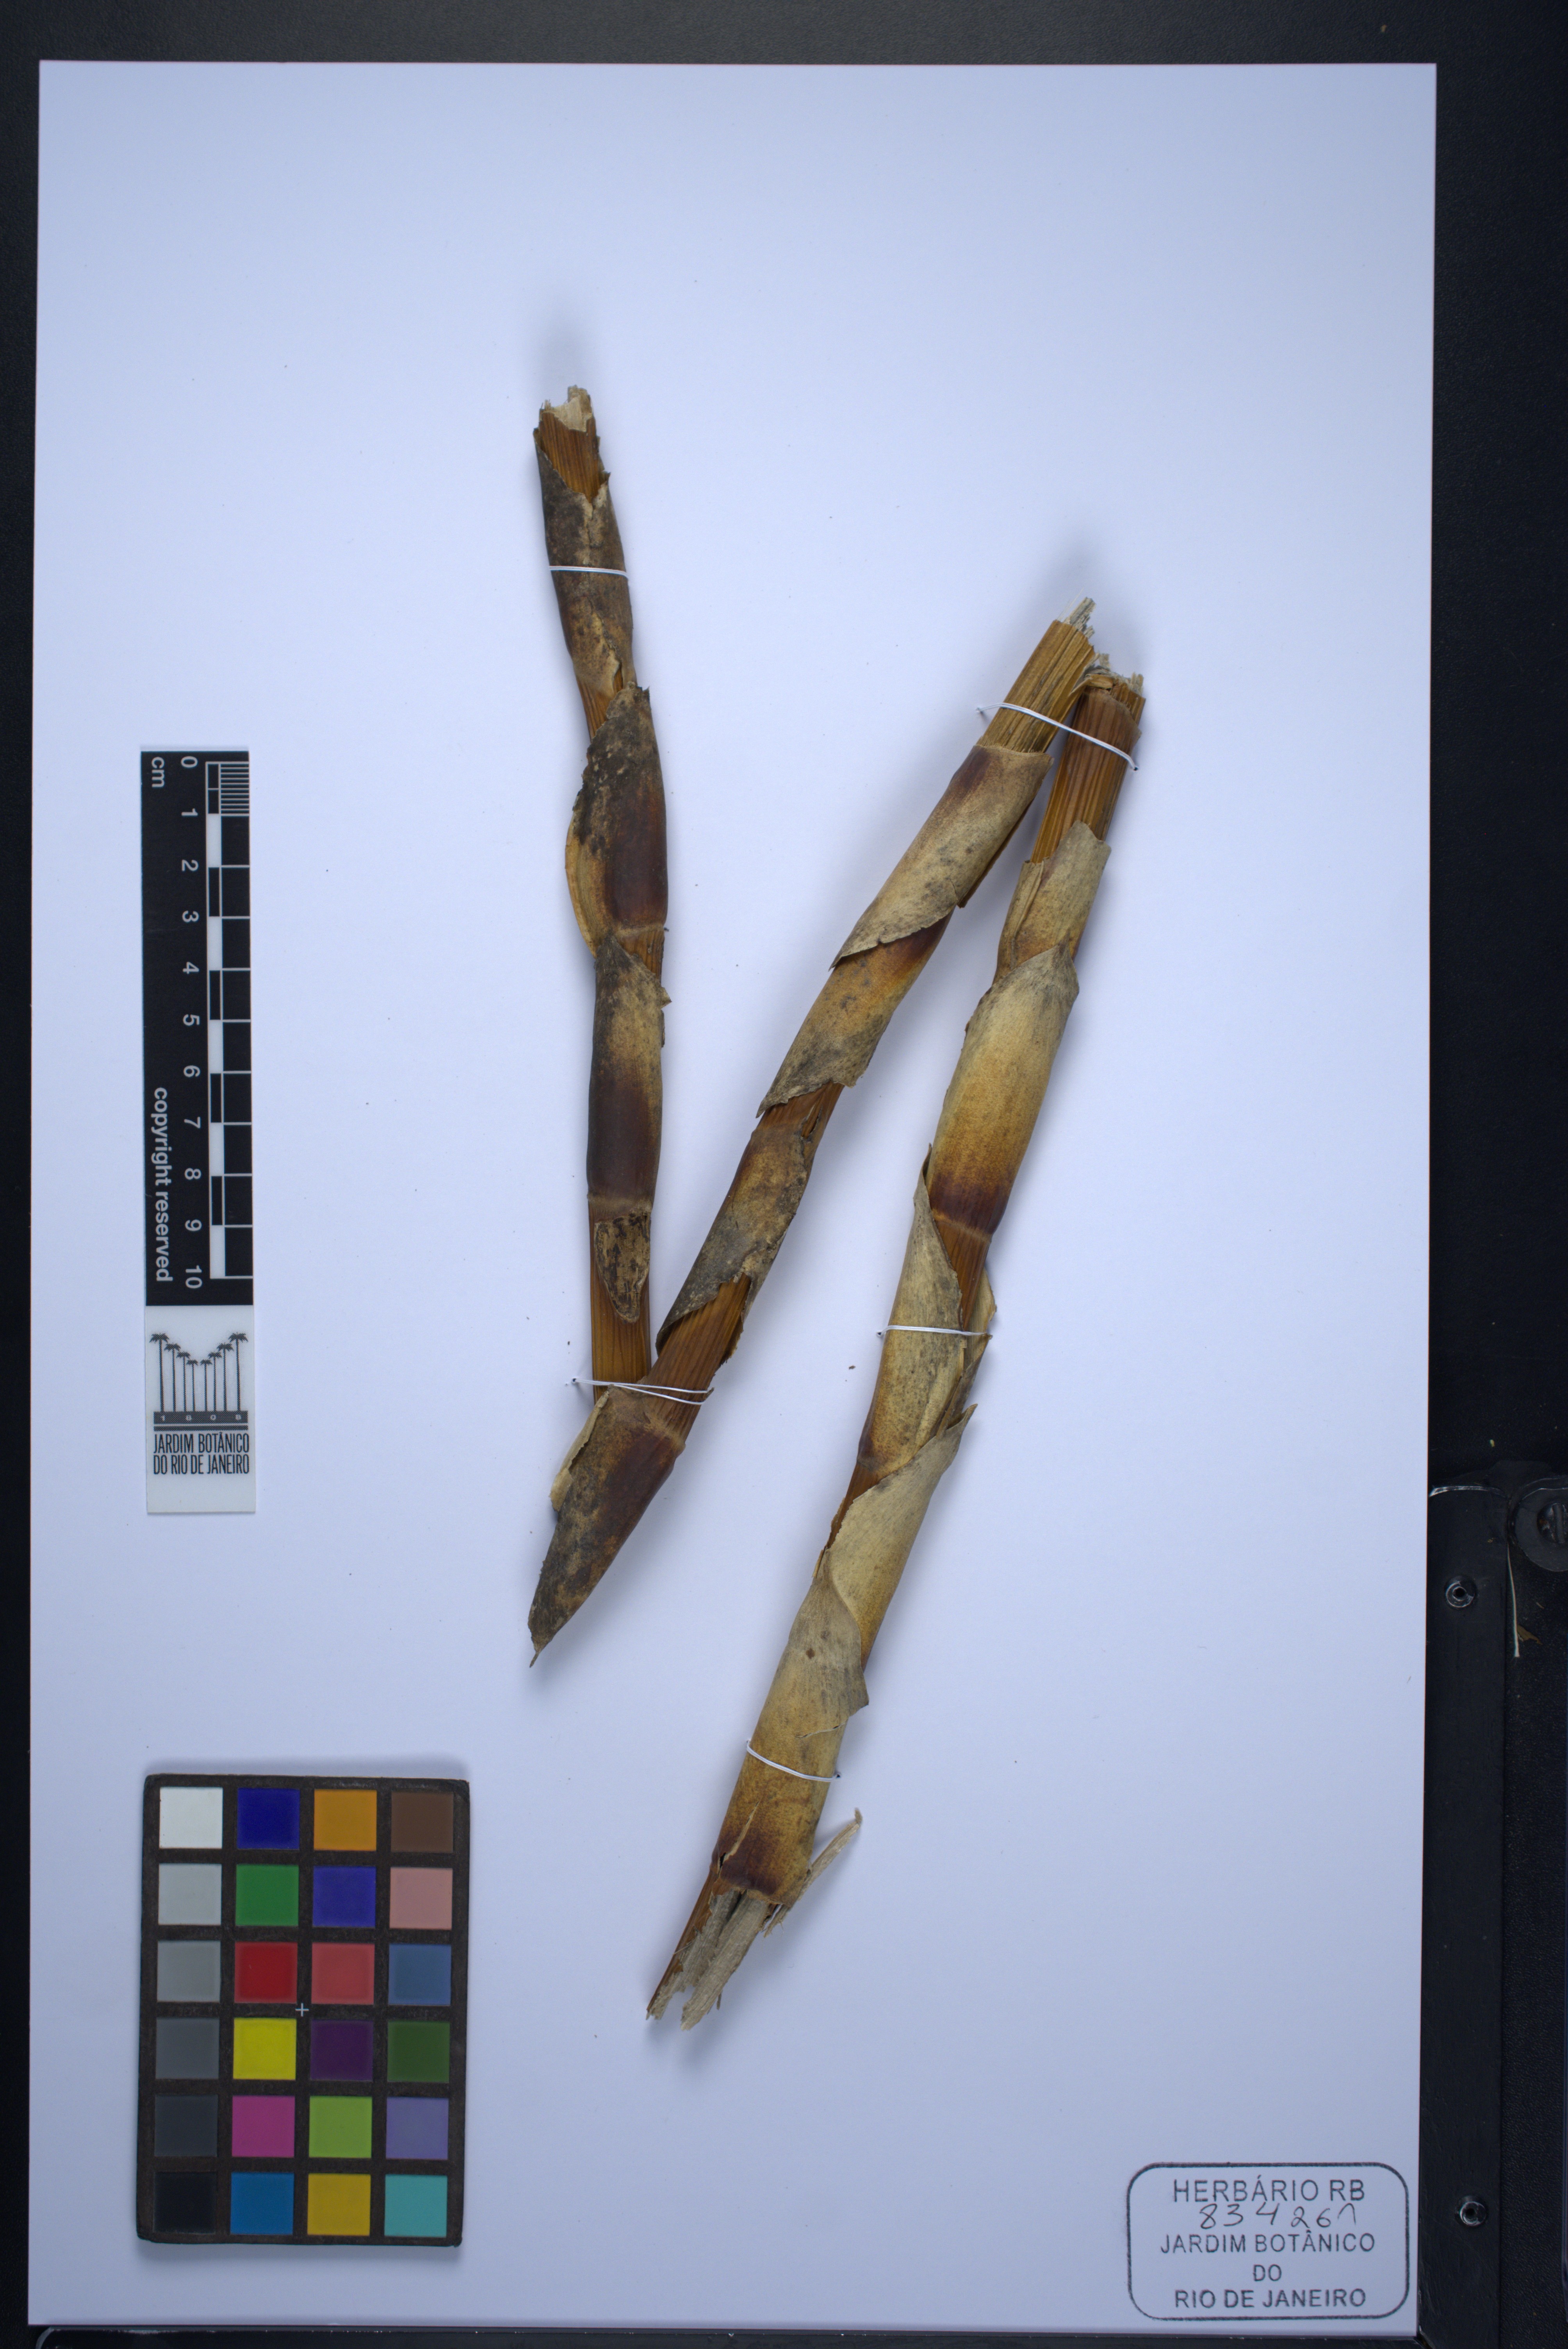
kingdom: Plantae
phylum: Tracheophyta
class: Liliopsida
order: Poales
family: Bromeliaceae
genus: Vriesea
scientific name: Vriesea chapadensis
